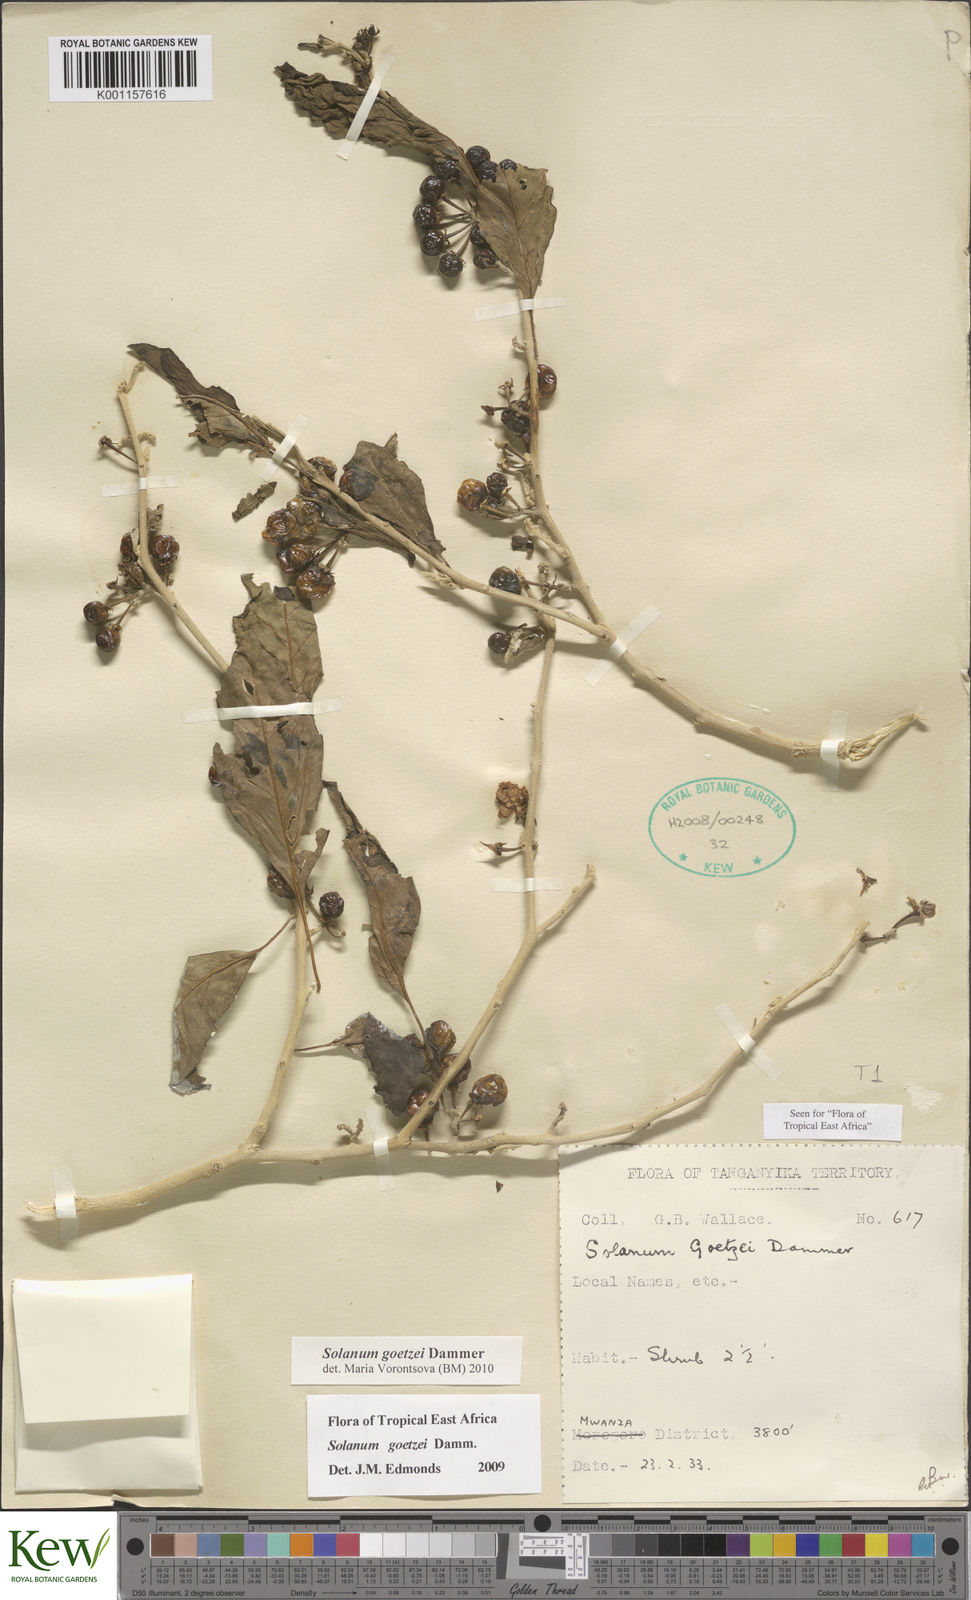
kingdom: Plantae
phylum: Tracheophyta
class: Magnoliopsida
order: Solanales
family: Solanaceae
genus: Solanum
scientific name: Solanum goetzei
